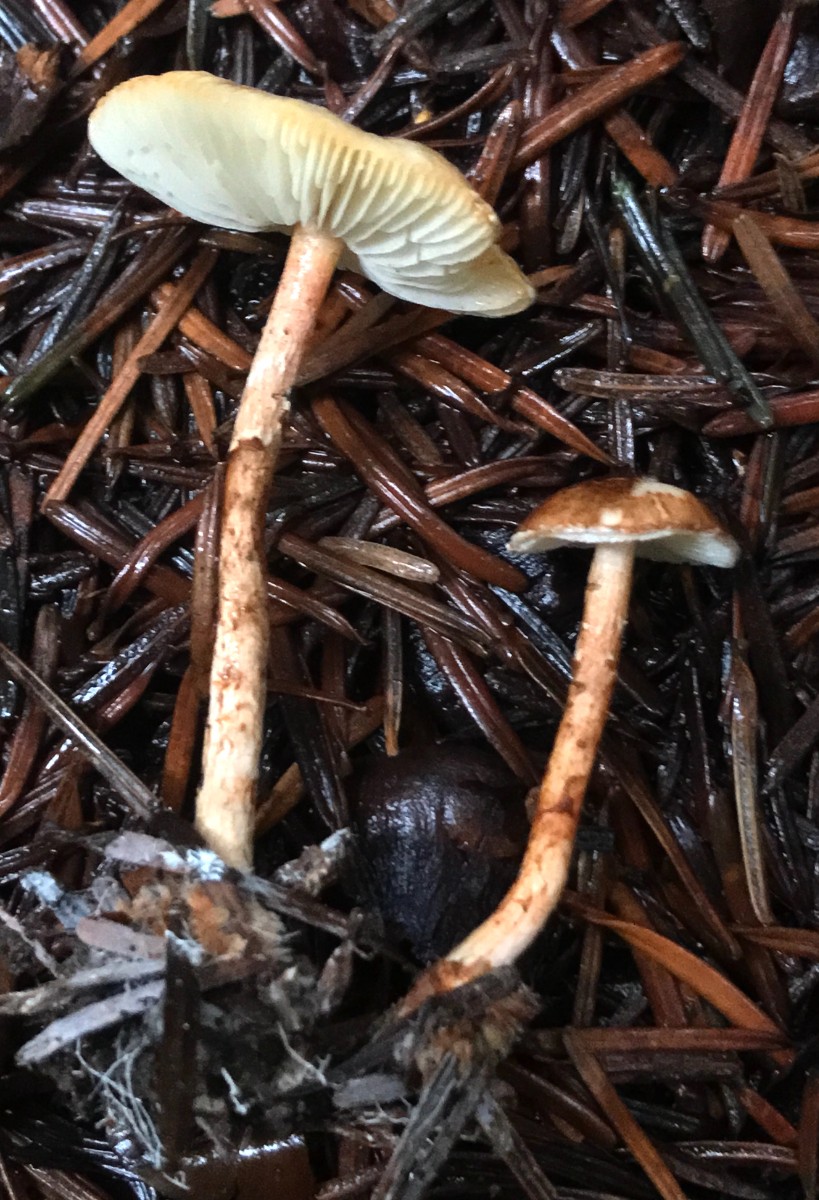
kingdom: Fungi
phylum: Basidiomycota
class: Agaricomycetes
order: Agaricales
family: Agaricaceae
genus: Lepiota
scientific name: Lepiota castanea
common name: kastaniebrun parasolhat
